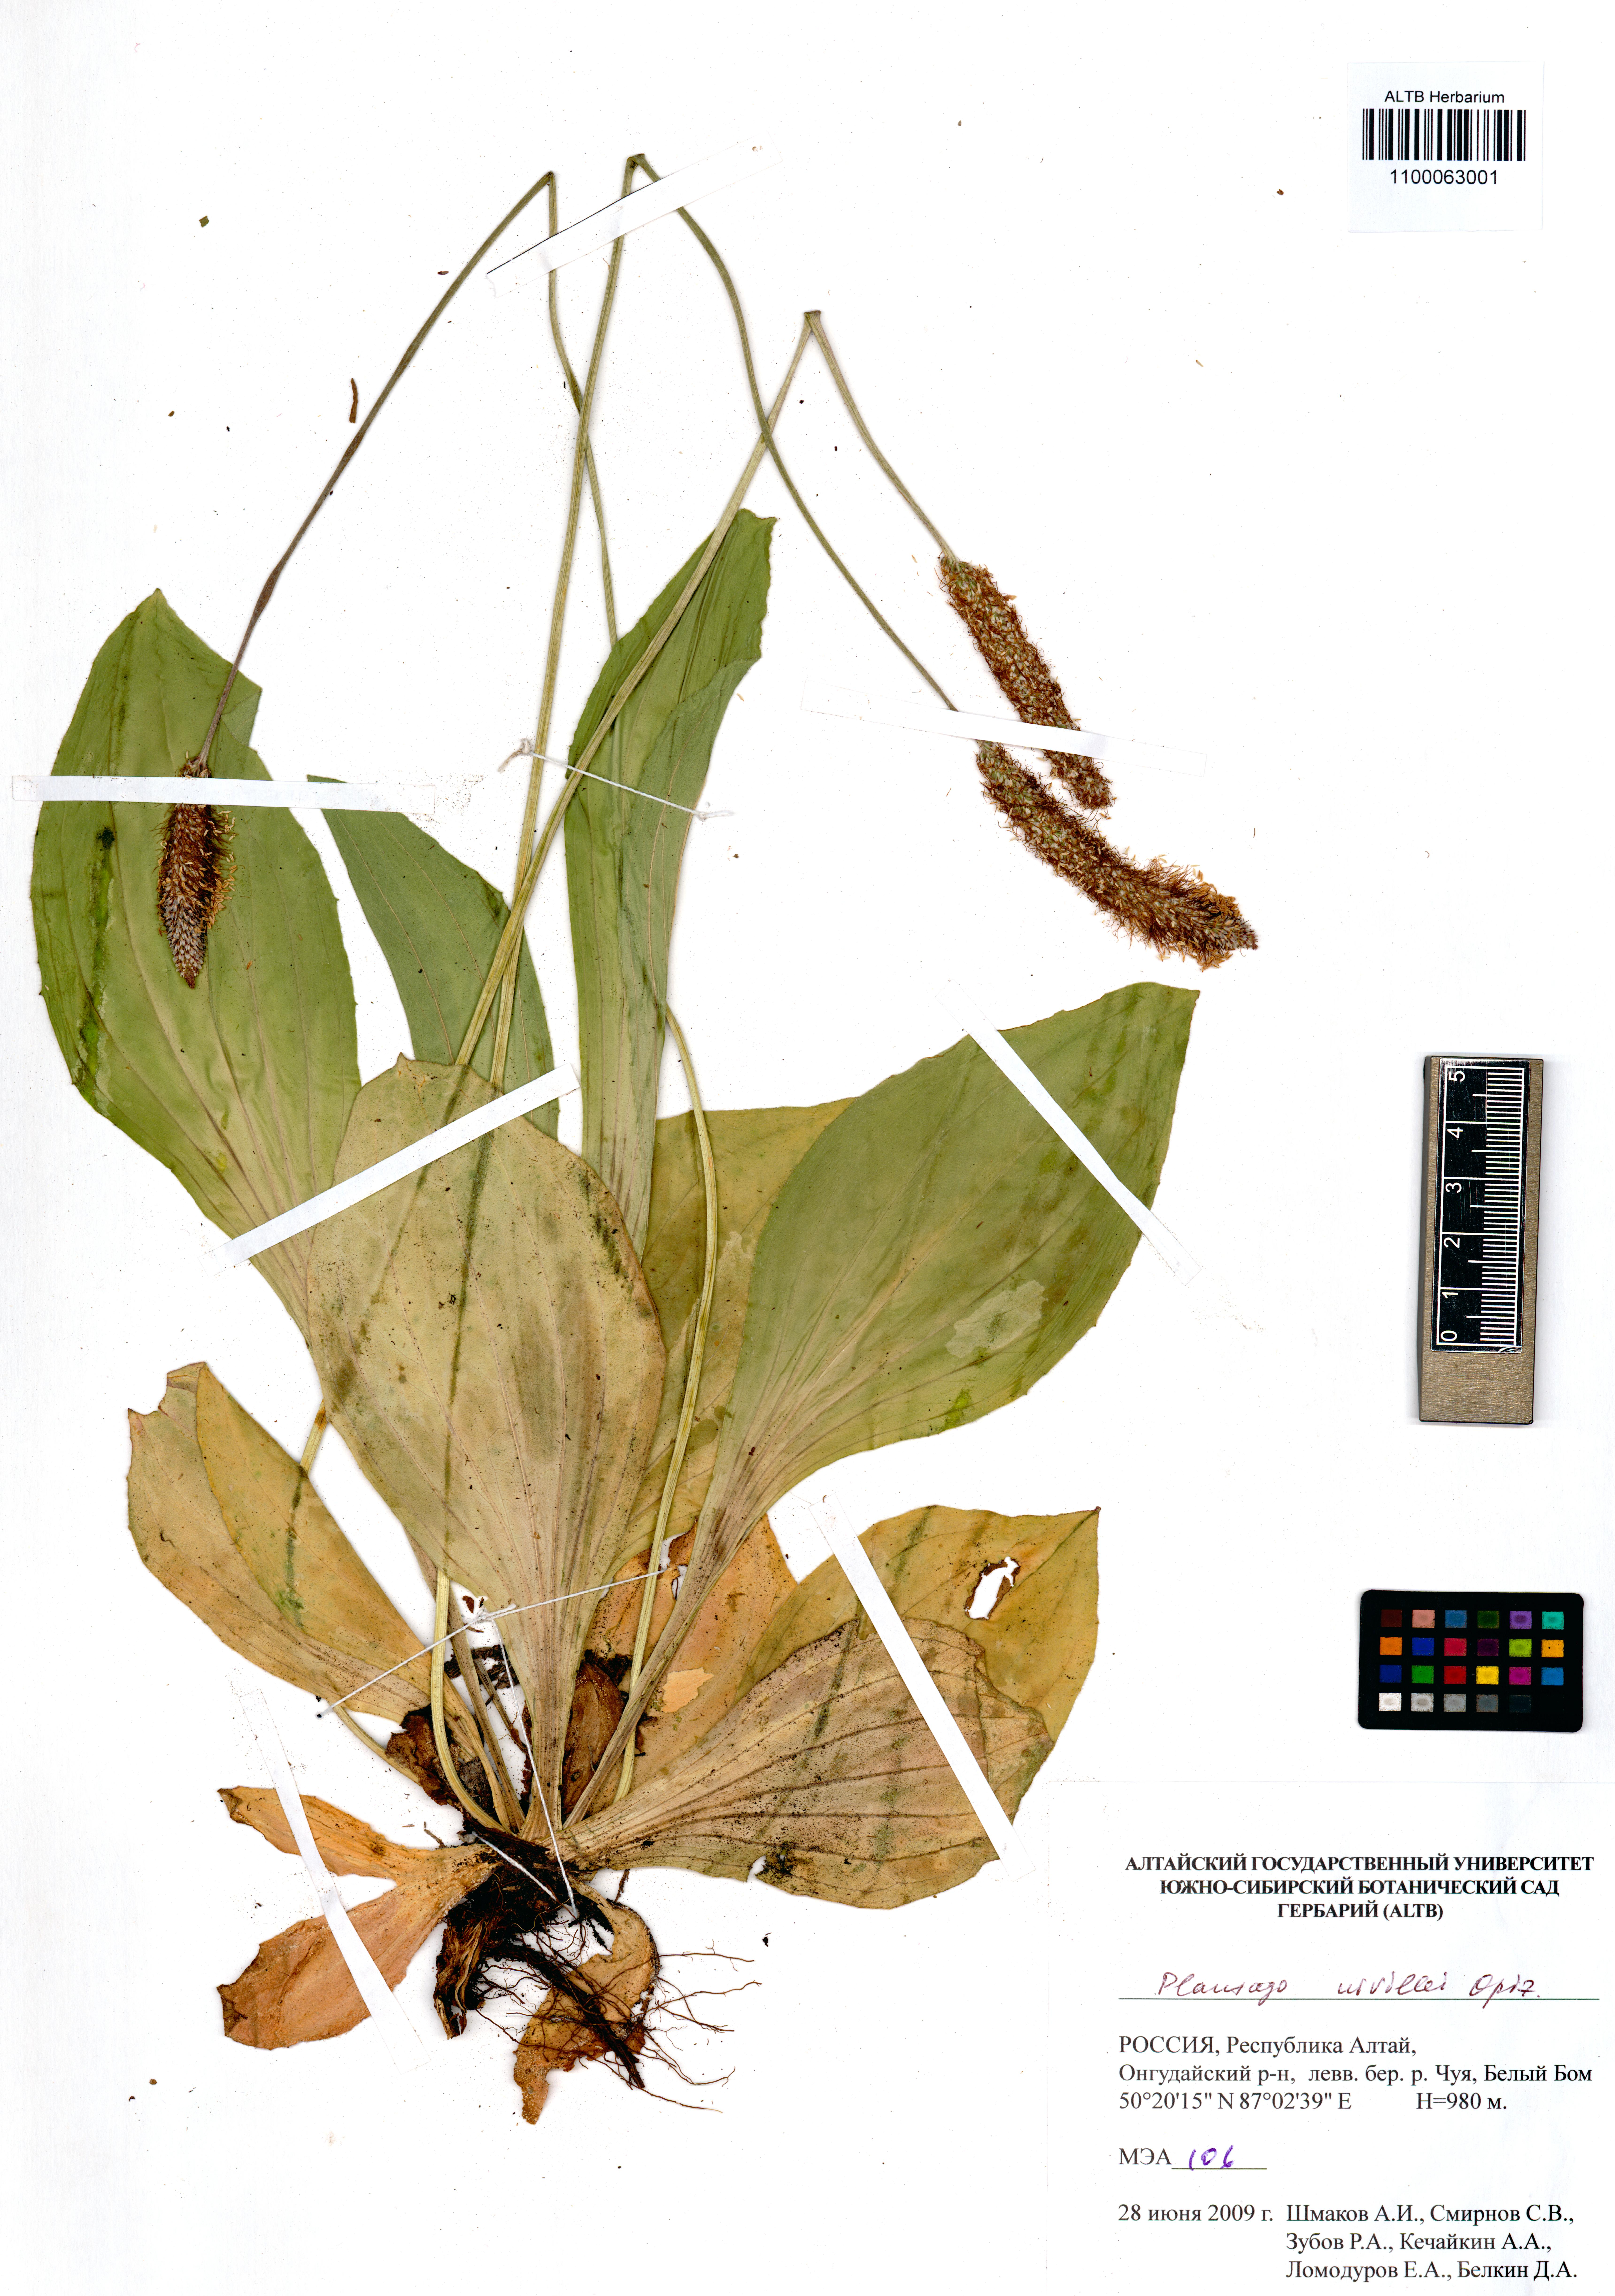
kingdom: Plantae
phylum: Tracheophyta
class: Magnoliopsida
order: Lamiales
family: Plantaginaceae
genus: Plantago
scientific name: Plantago urvillei
